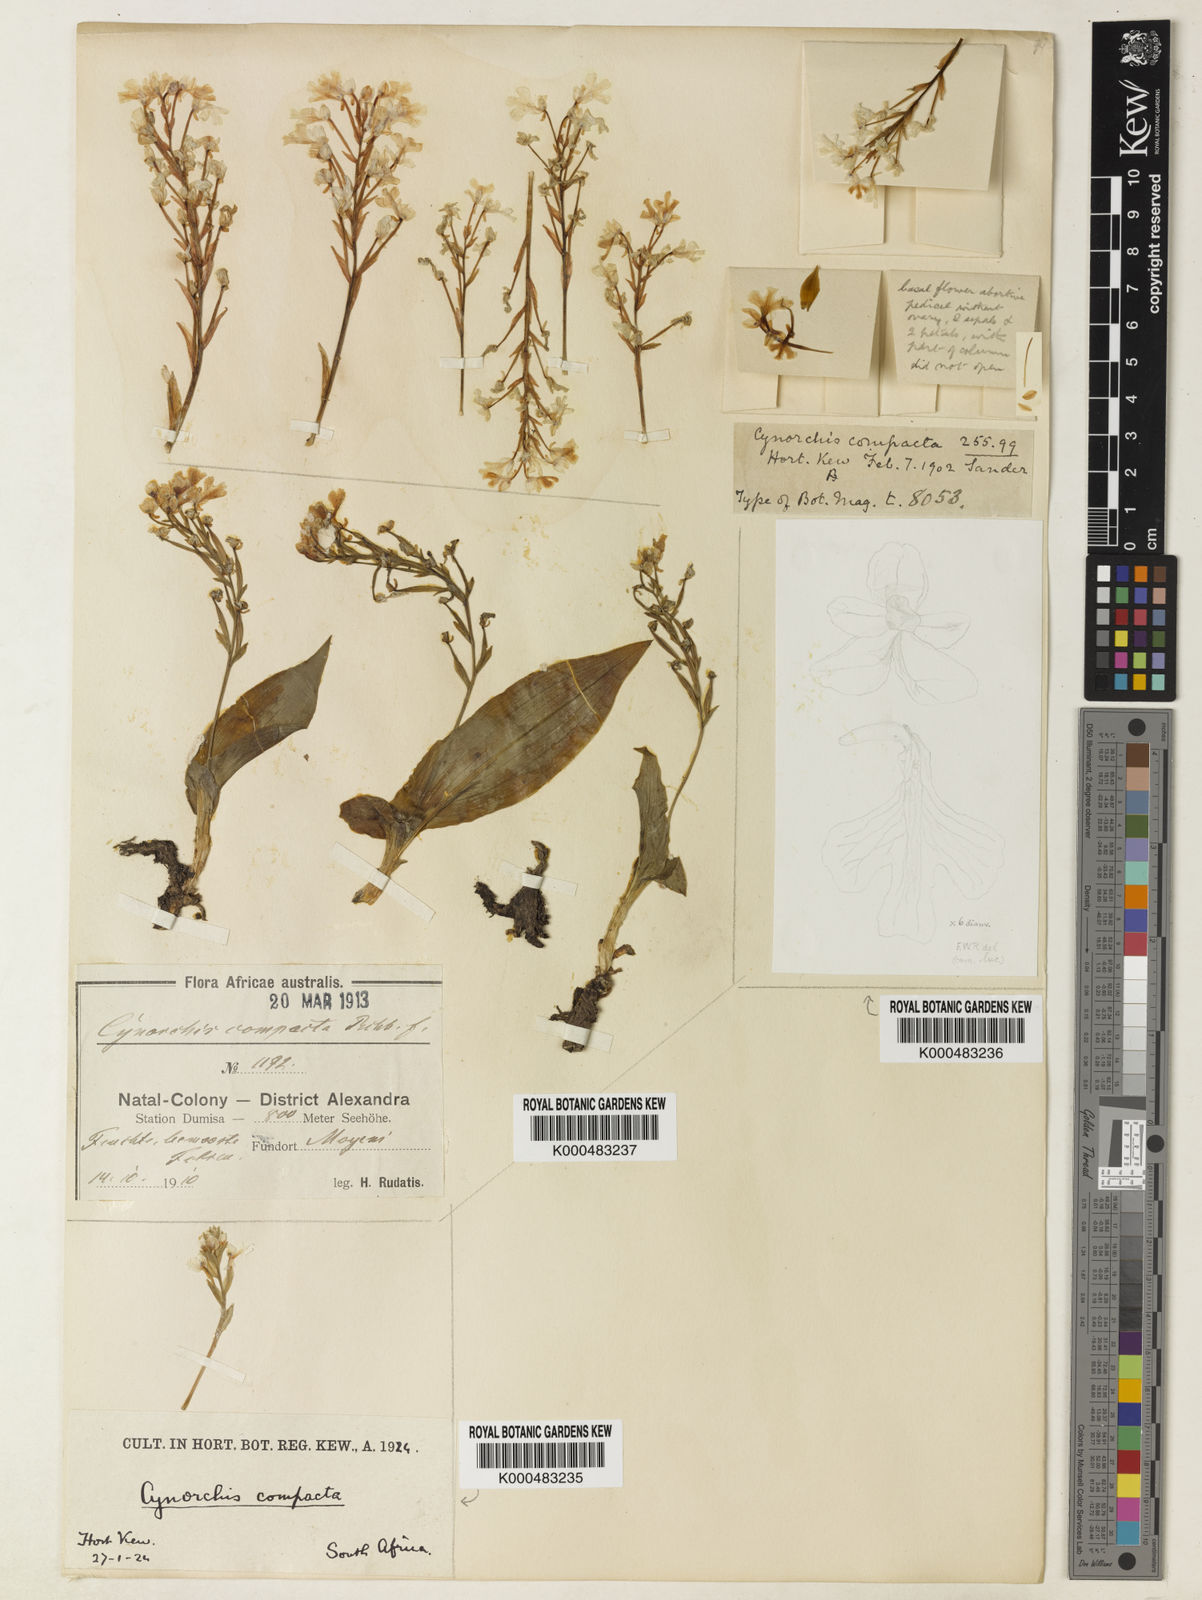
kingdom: Plantae
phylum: Tracheophyta
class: Liliopsida
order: Asparagales
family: Orchidaceae
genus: Cynorkis
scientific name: Cynorkis compacta
